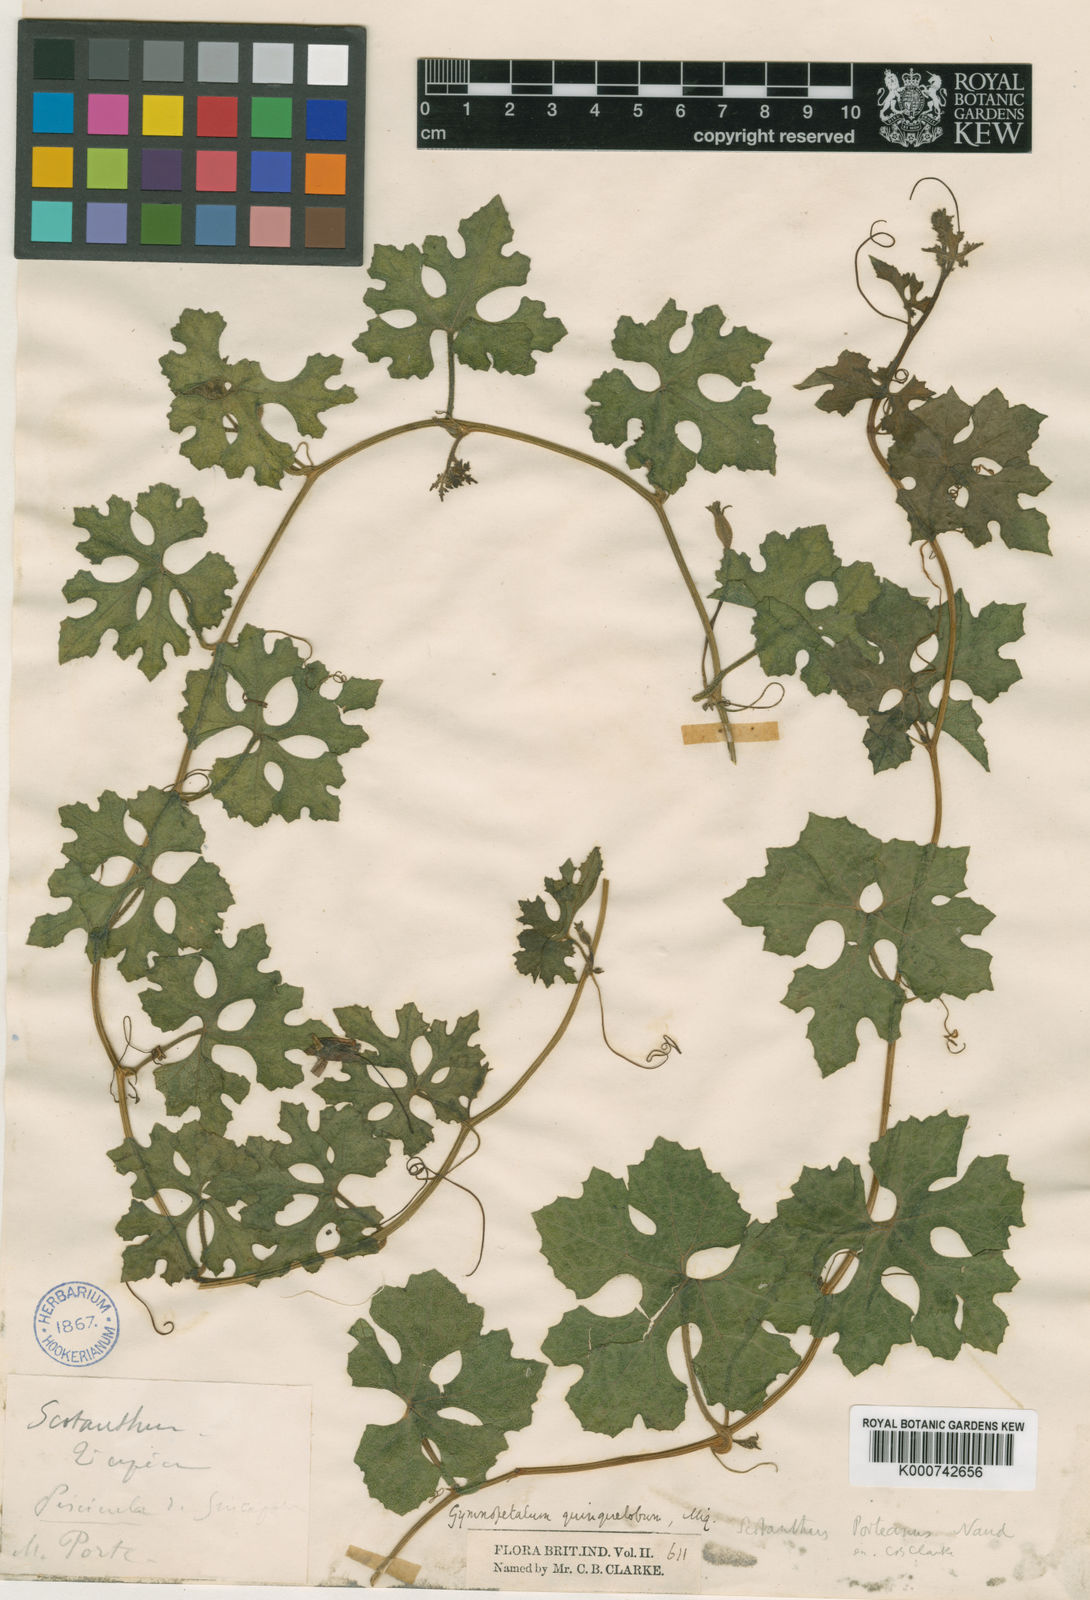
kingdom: Plantae
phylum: Tracheophyta
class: Magnoliopsida
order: Cucurbitales
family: Cucurbitaceae
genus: Trichosanthes
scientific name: Trichosanthes costata
